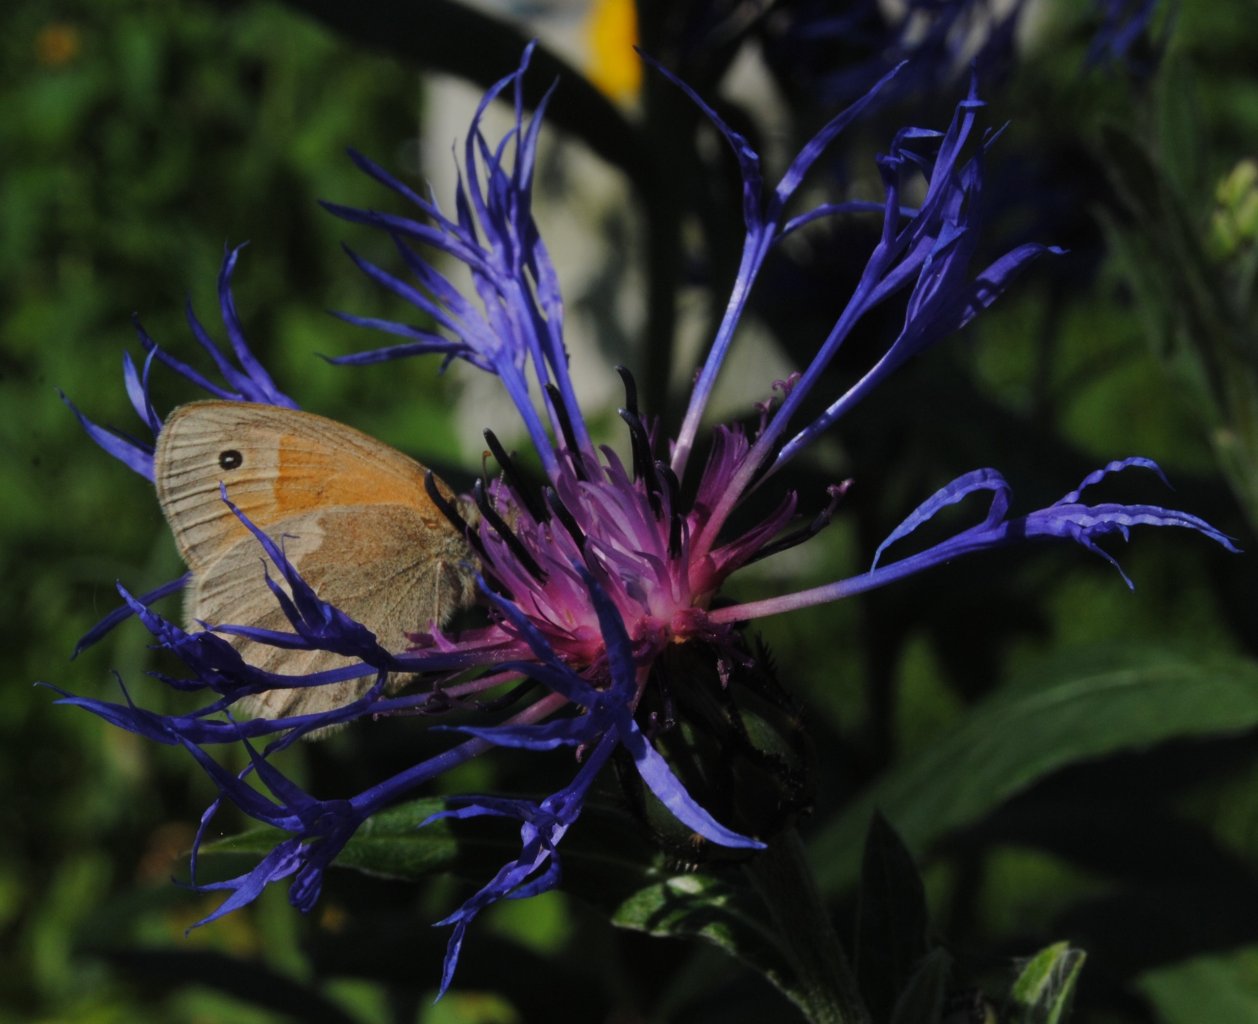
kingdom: Animalia
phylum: Arthropoda
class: Insecta
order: Lepidoptera
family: Nymphalidae
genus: Coenonympha
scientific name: Coenonympha tullia
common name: Large Heath
